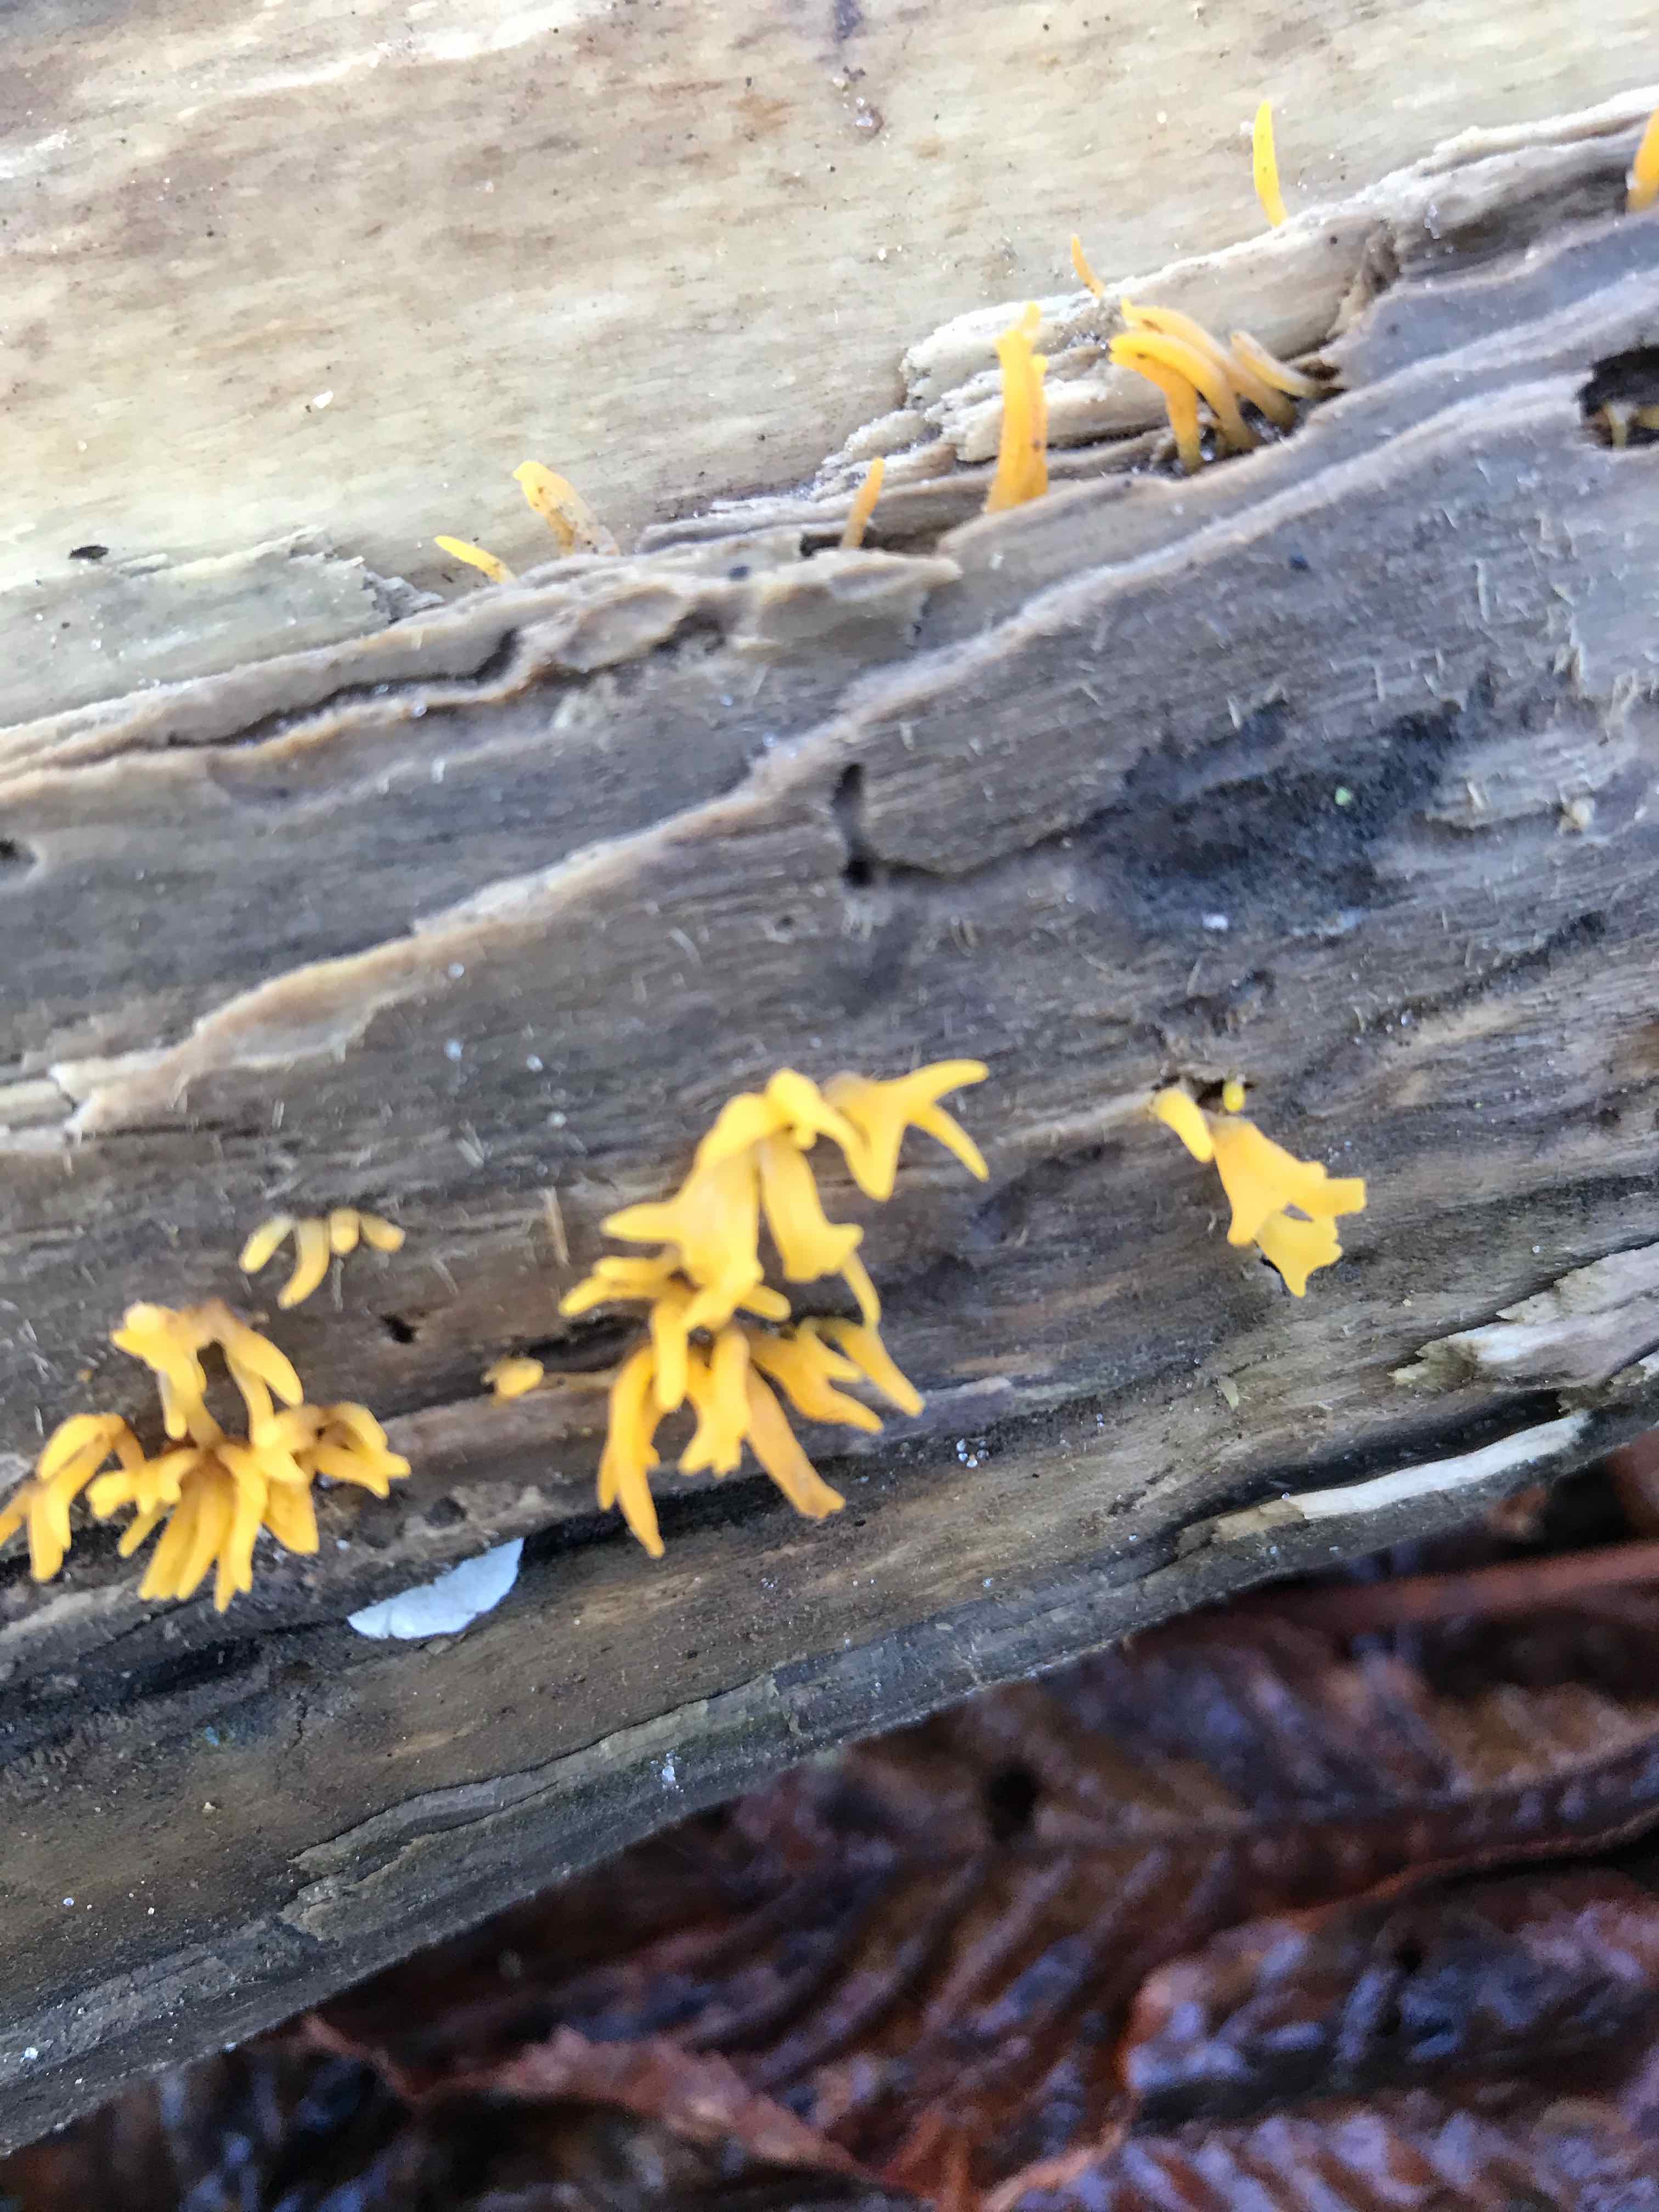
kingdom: Fungi
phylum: Basidiomycota
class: Dacrymycetes
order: Dacrymycetales
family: Dacrymycetaceae
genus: Calocera
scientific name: Calocera
